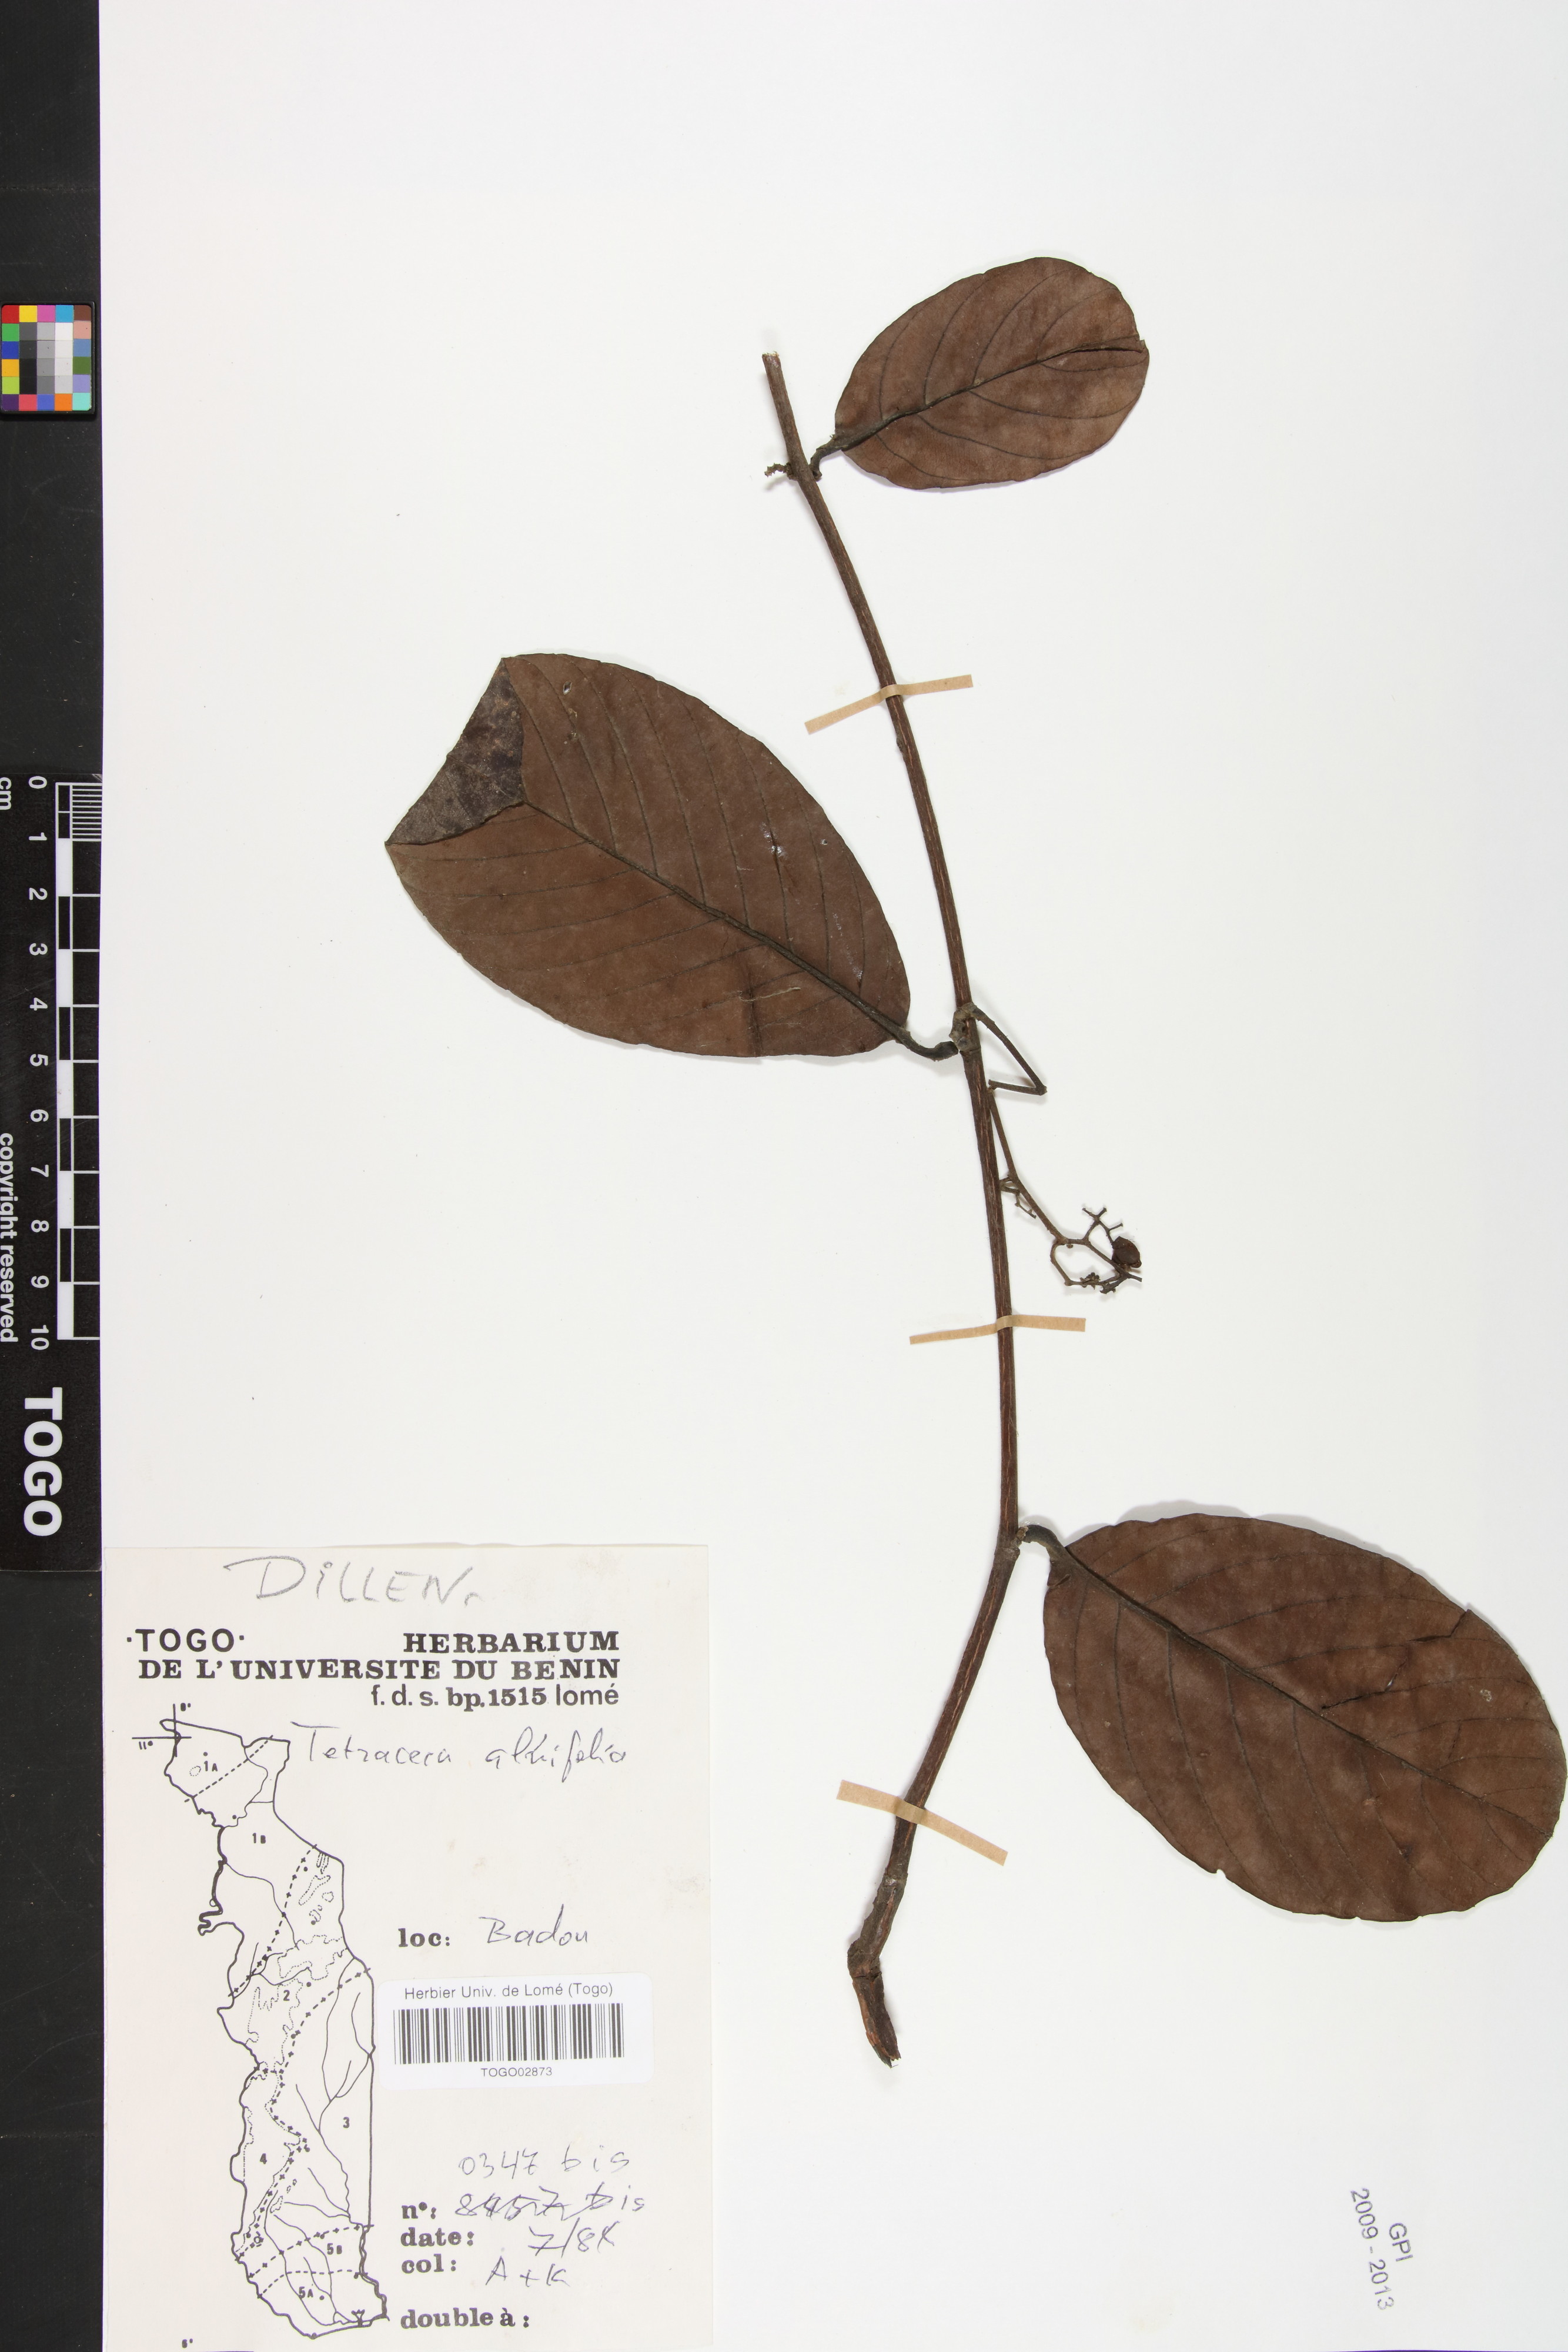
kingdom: Plantae
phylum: Tracheophyta
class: Magnoliopsida
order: Dilleniales
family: Dilleniaceae
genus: Tetracera
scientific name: Tetracera alnifolia
